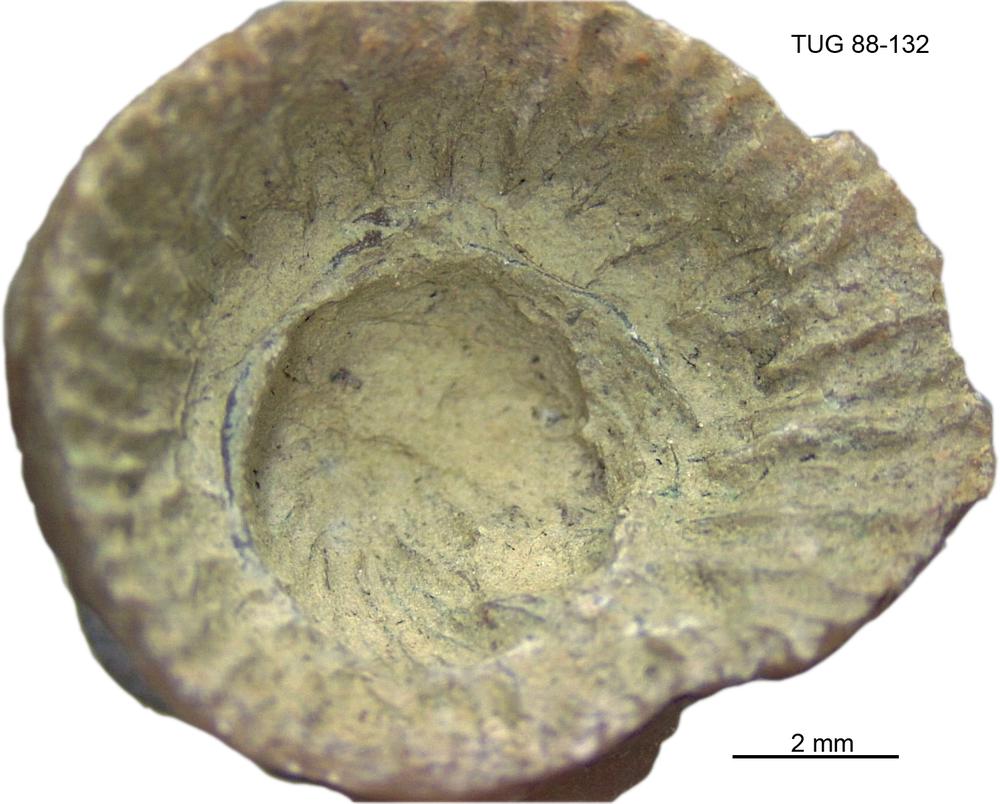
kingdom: Animalia
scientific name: Animalia
